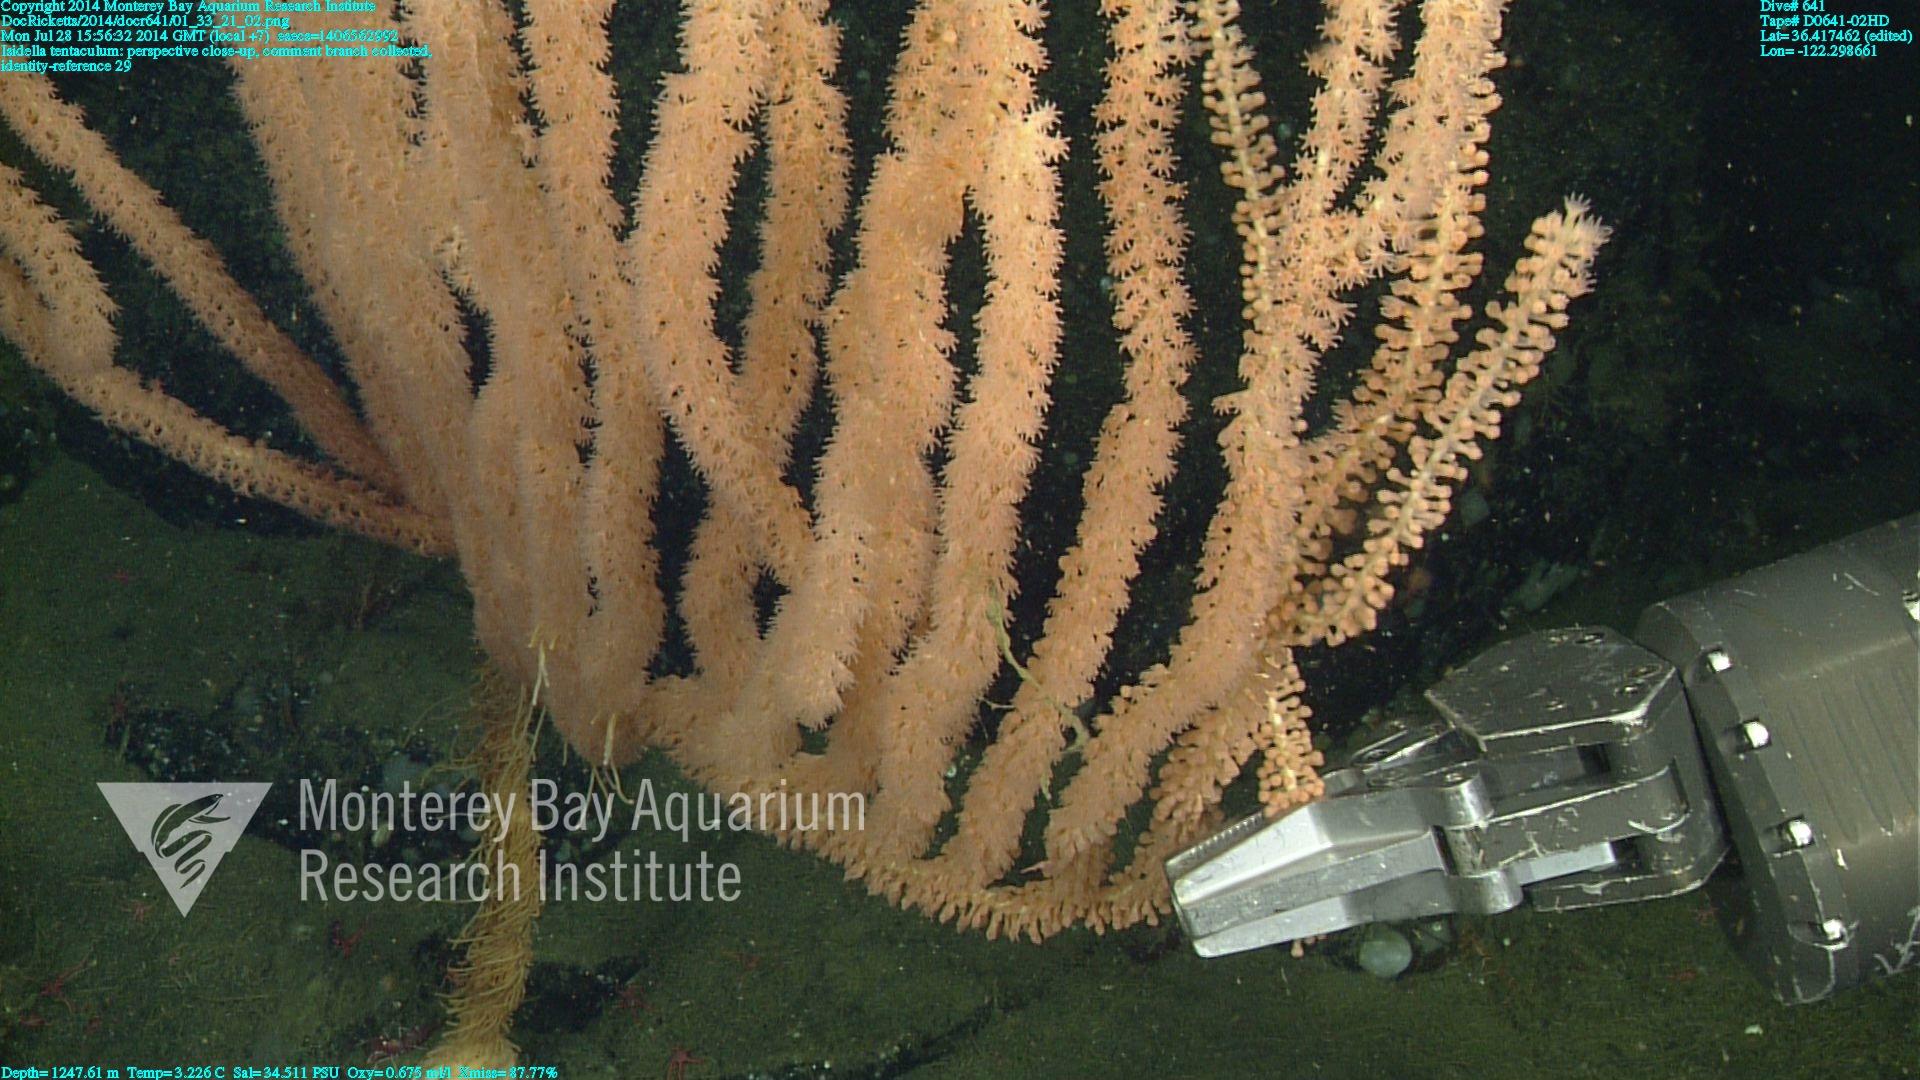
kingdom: Animalia
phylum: Cnidaria
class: Anthozoa
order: Scleralcyonacea
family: Keratoisididae
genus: Isidella
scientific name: Isidella tentaculum
